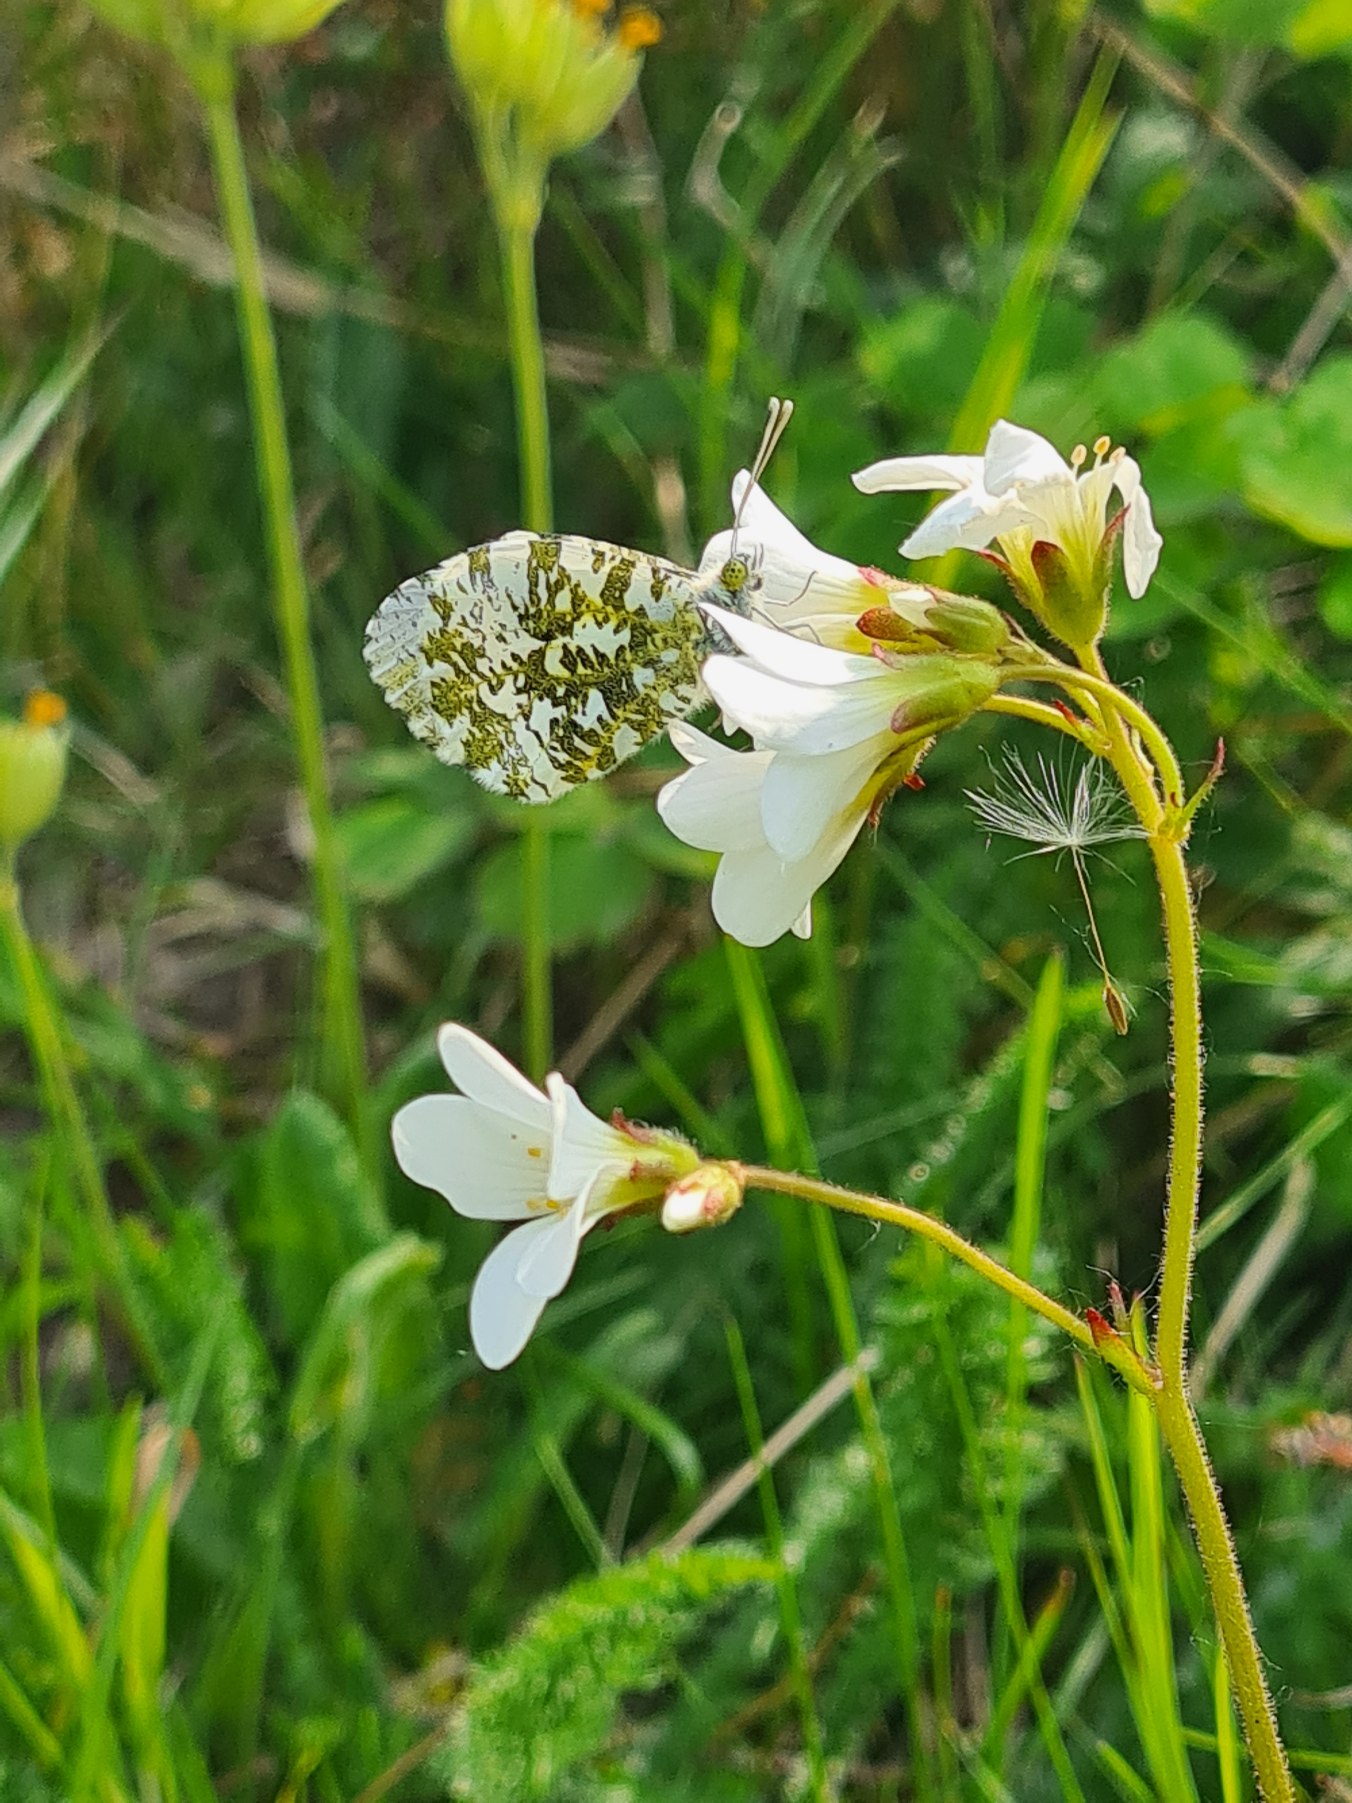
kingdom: Animalia
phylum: Arthropoda
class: Insecta
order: Lepidoptera
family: Pieridae
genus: Anthocharis
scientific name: Anthocharis cardamines
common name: Aurora
